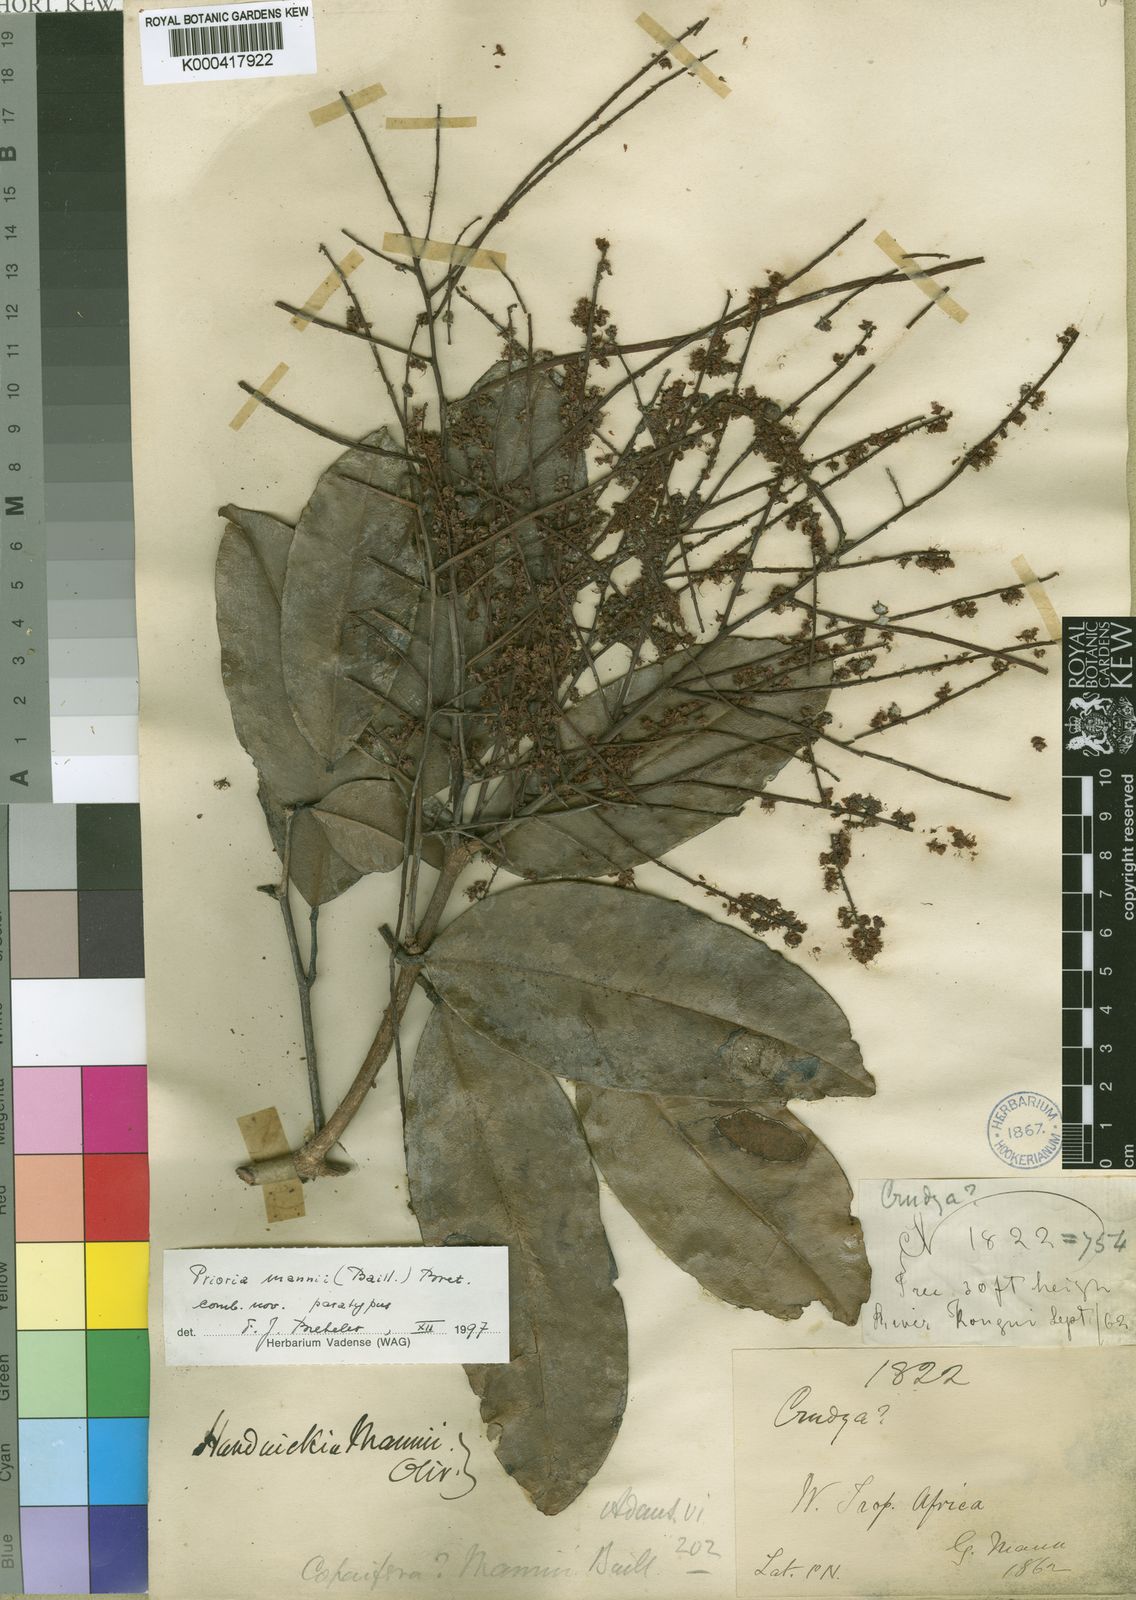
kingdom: Plantae
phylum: Tracheophyta
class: Magnoliopsida
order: Fabales
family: Fabaceae
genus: Prioria
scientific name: Prioria mannii
